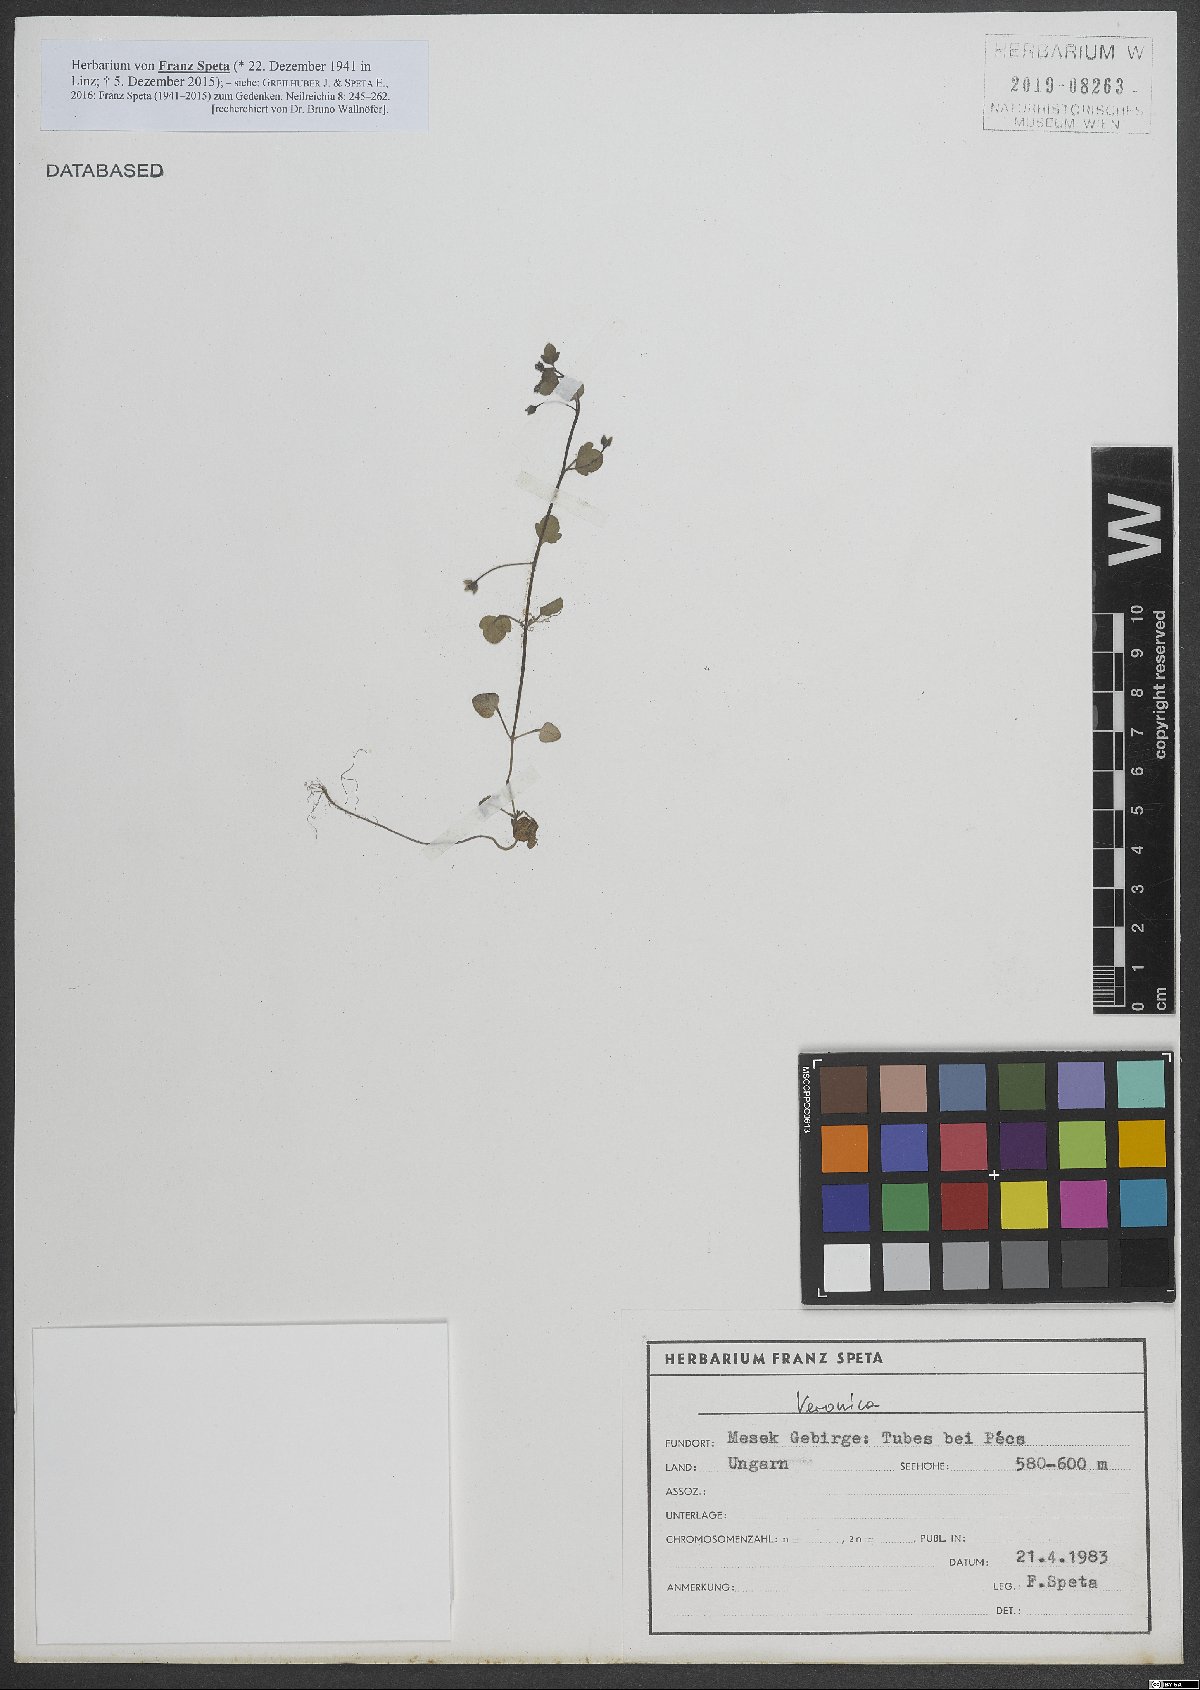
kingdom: Plantae
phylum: Tracheophyta
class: Magnoliopsida
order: Lamiales
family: Plantaginaceae
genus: Veronica
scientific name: Veronica
